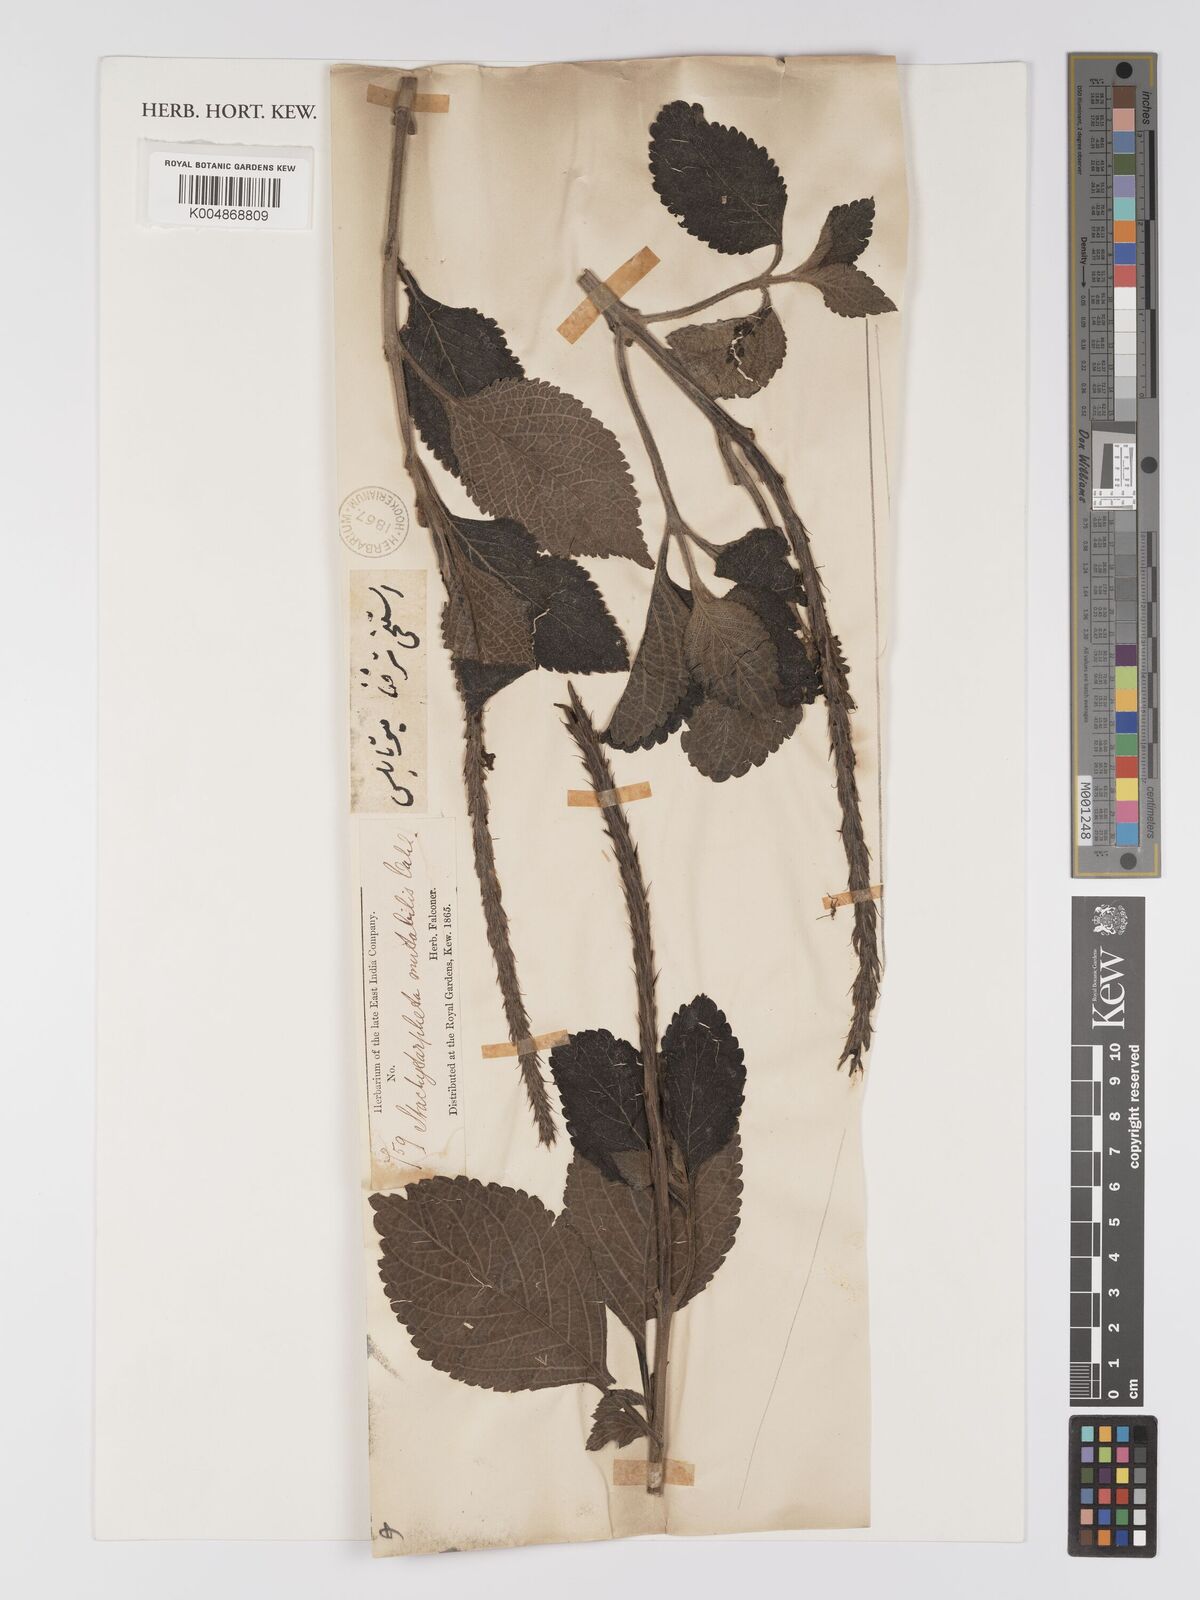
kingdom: Plantae
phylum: Tracheophyta
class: Magnoliopsida
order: Lamiales
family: Verbenaceae
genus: Stachytarpheta
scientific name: Stachytarpheta mutabilis
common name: Changeable velvetberry
